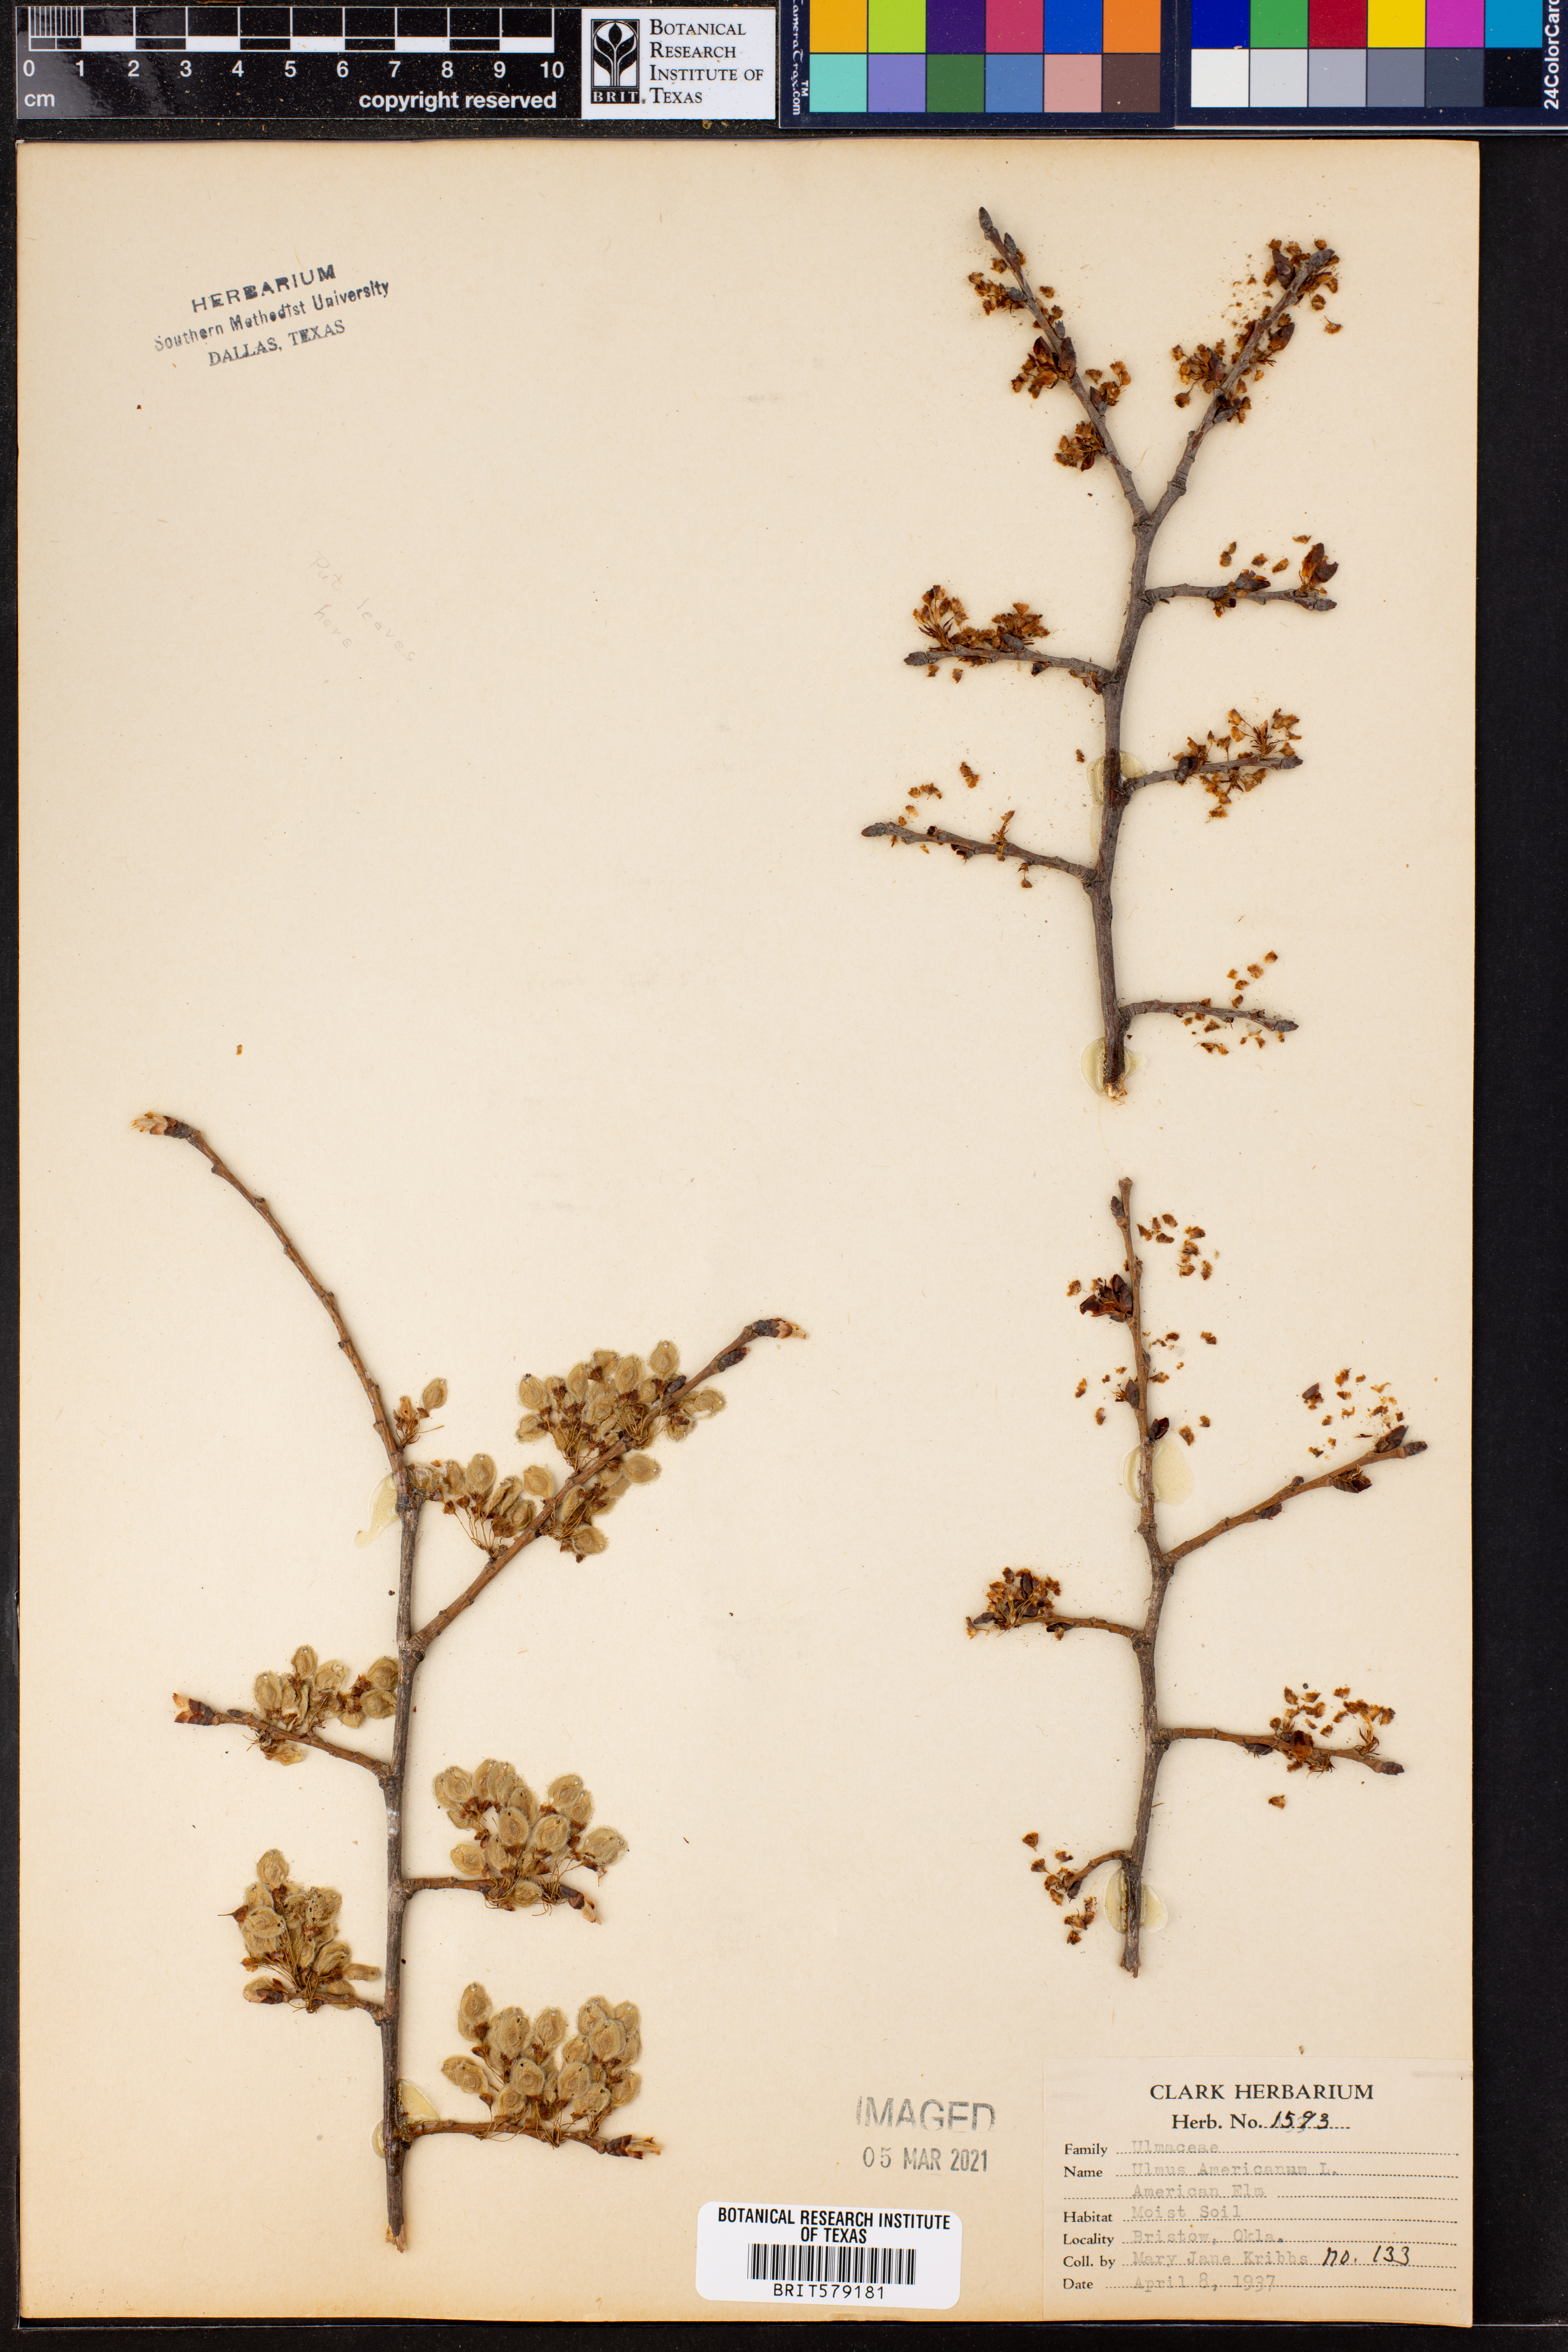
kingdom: Plantae
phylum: Tracheophyta
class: Magnoliopsida
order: Rosales
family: Ulmaceae
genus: Ulmus
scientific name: Ulmus americana
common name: American elm
